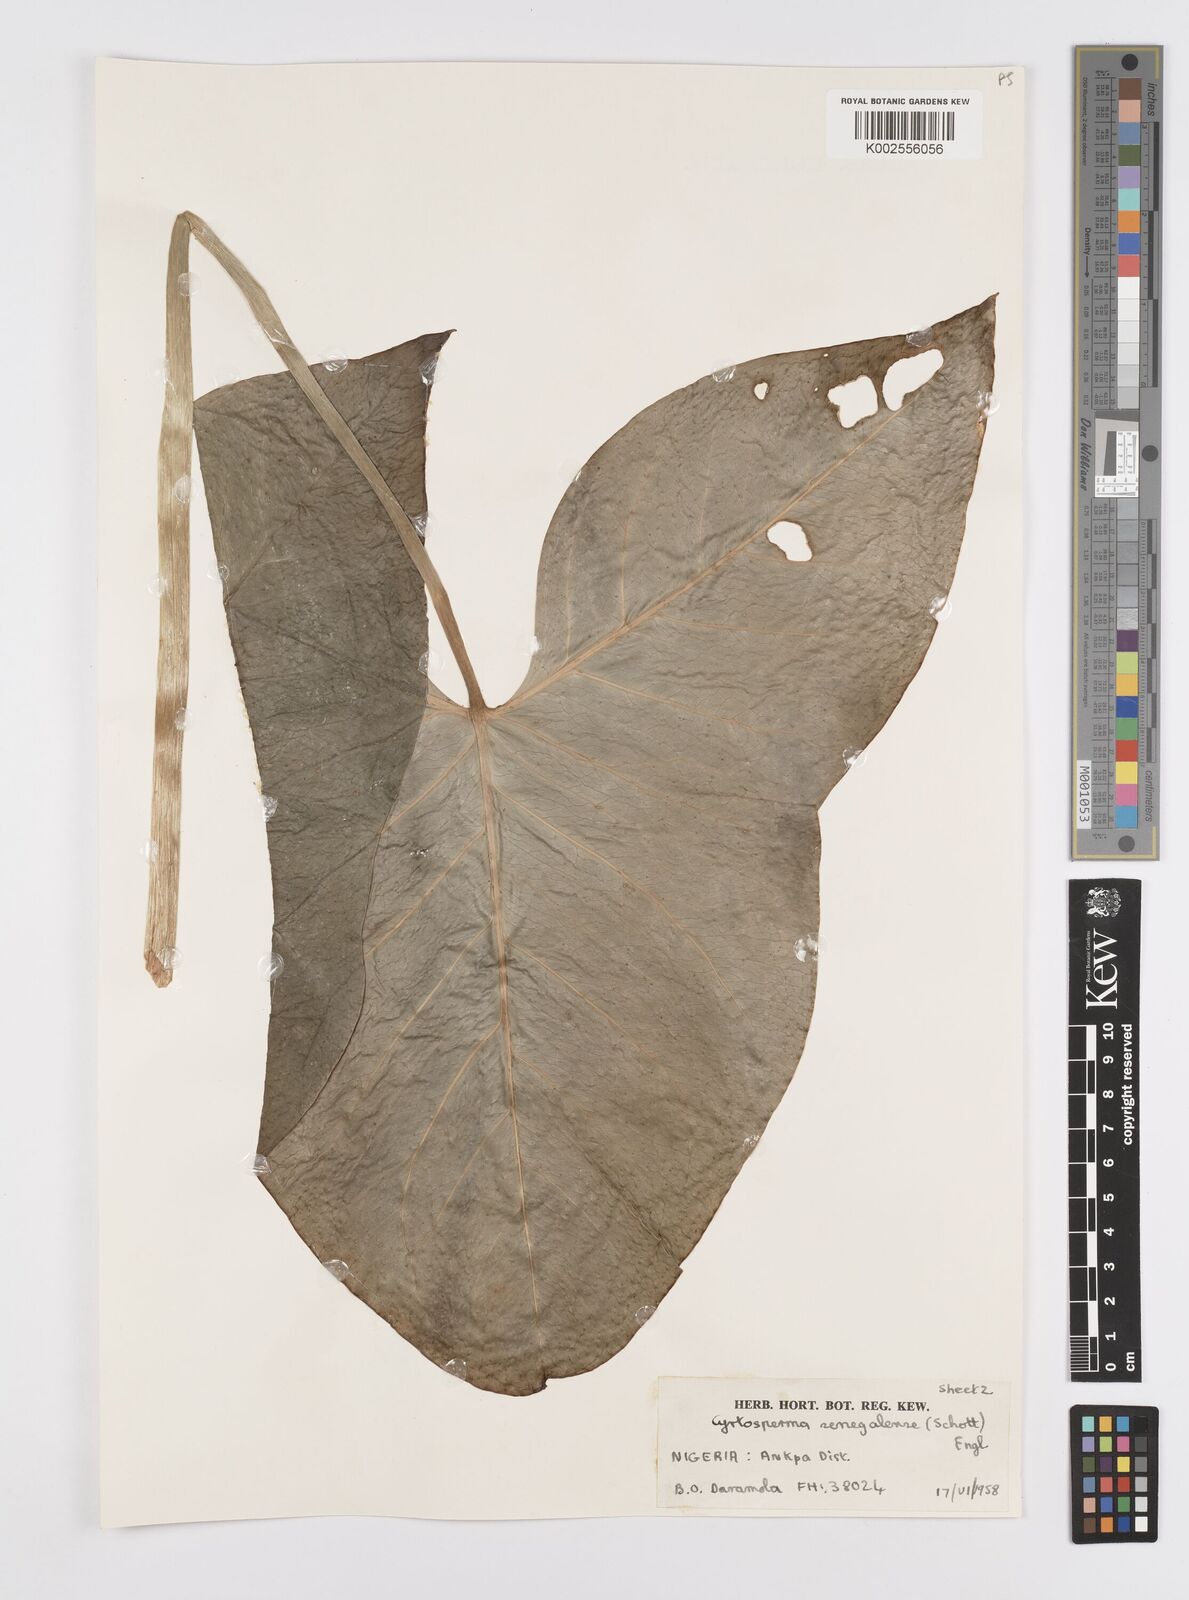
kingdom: Plantae
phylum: Tracheophyta
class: Liliopsida
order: Alismatales
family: Araceae
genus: Lasimorpha
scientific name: Lasimorpha senegalensis
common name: Swamp arum
